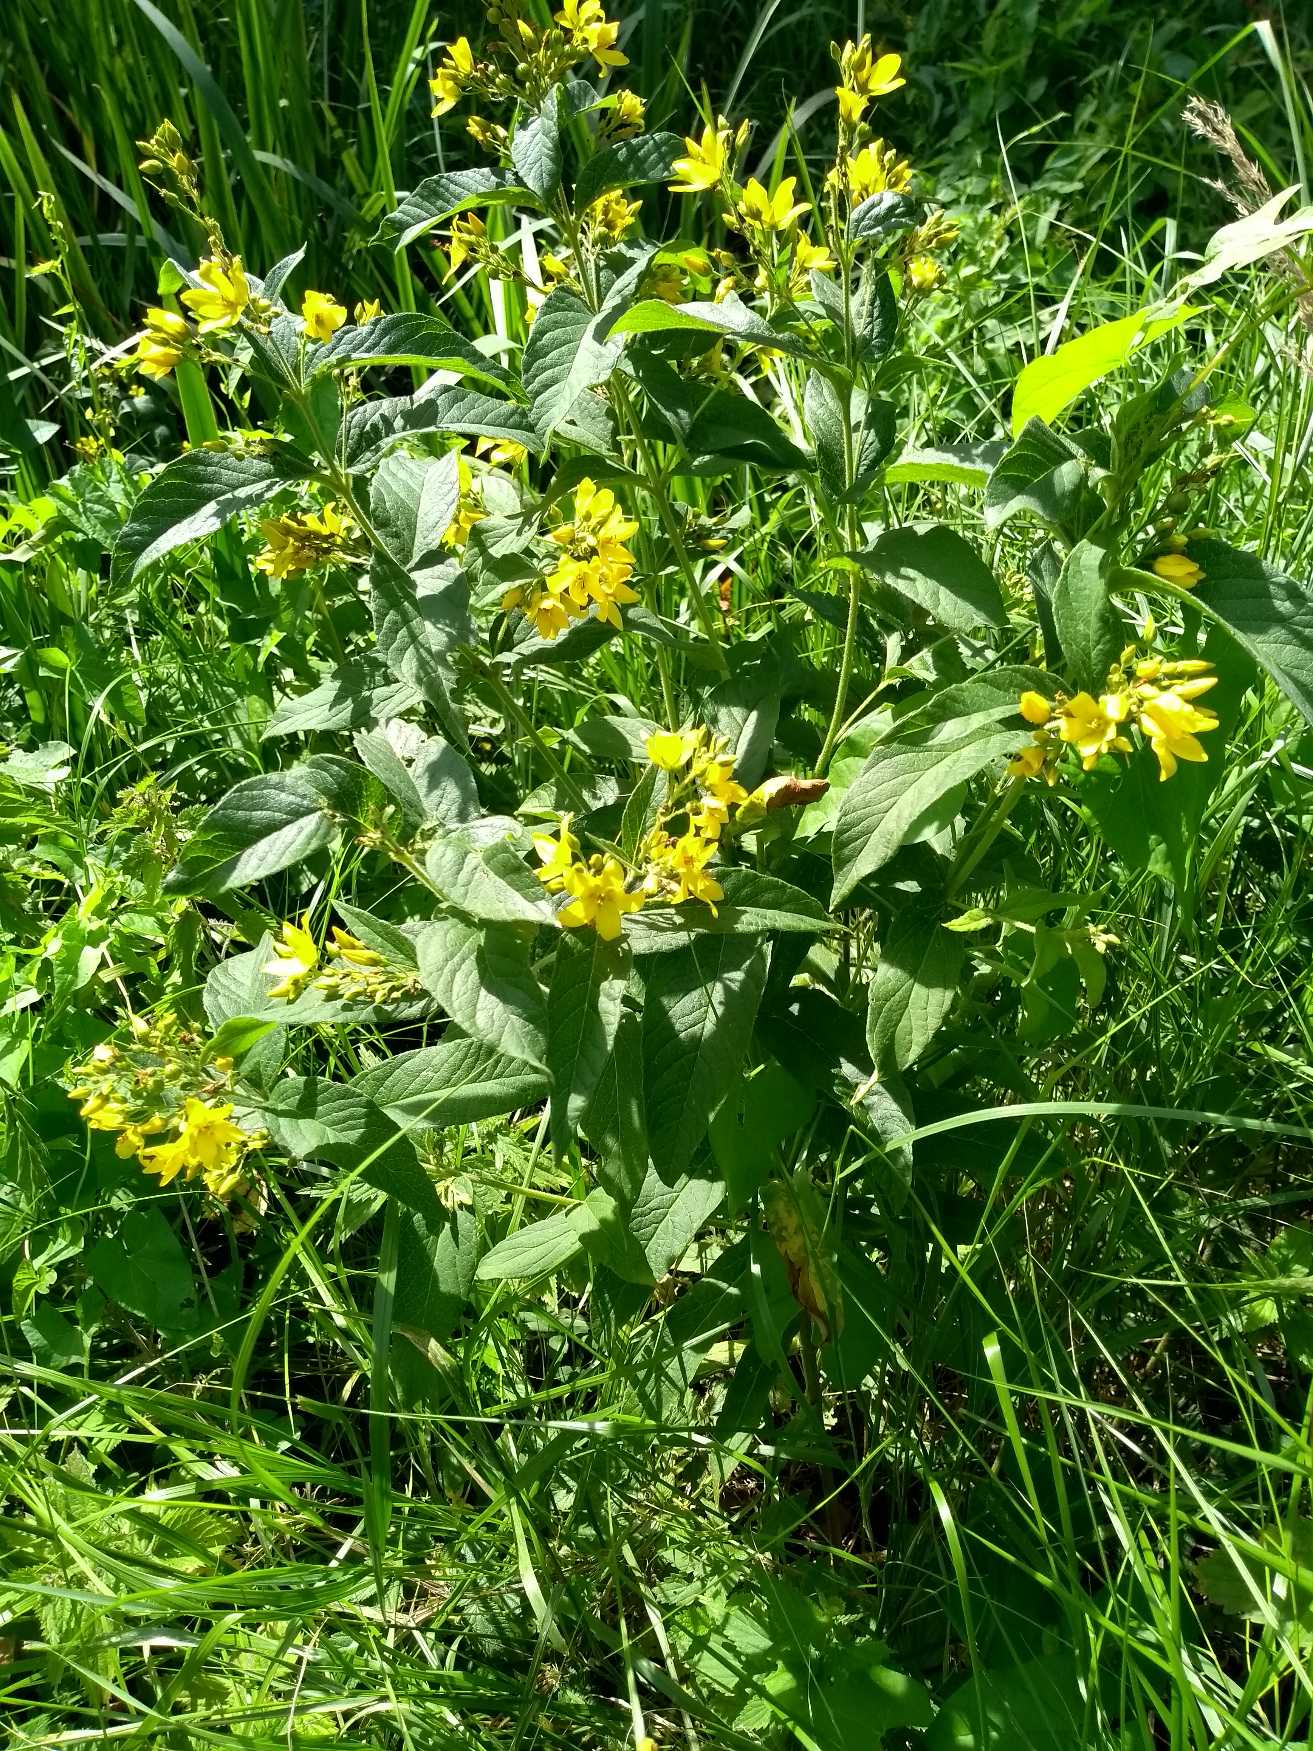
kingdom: Plantae
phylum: Tracheophyta
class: Magnoliopsida
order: Ericales
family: Primulaceae
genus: Lysimachia
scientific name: Lysimachia vulgaris
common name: Almindelig fredløs
